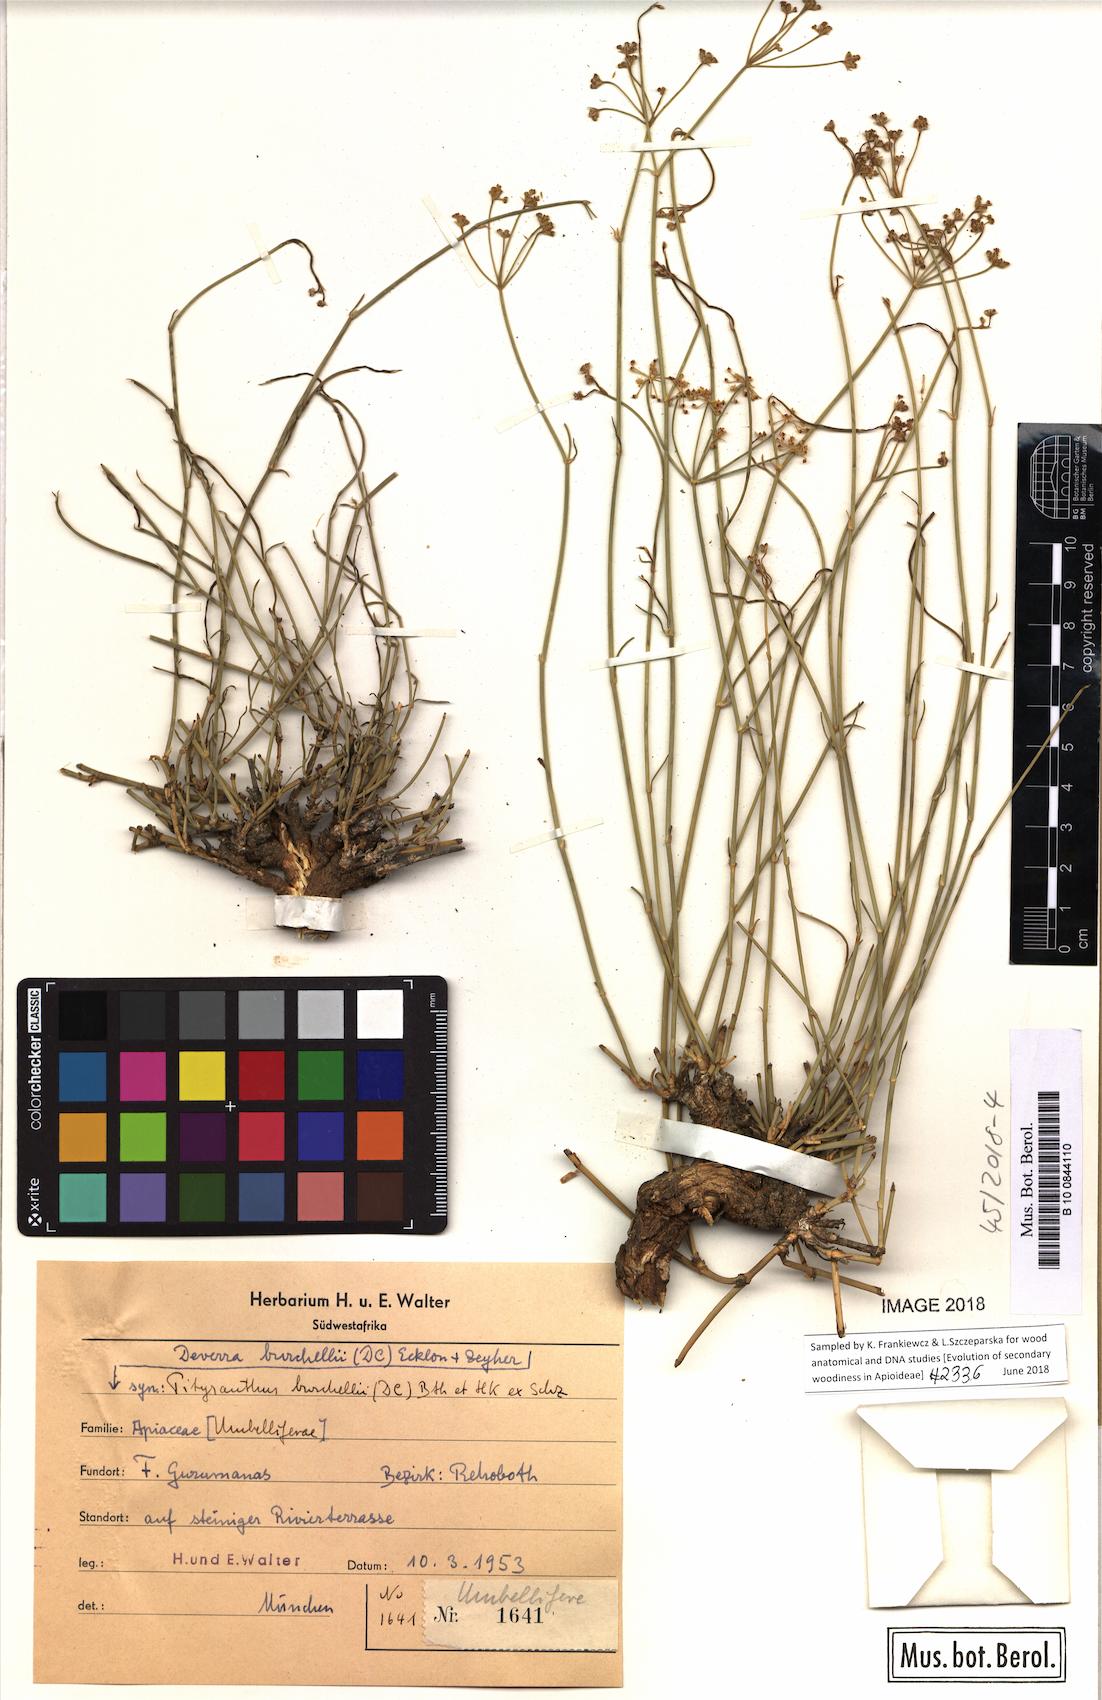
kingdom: Plantae
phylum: Tracheophyta
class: Magnoliopsida
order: Apiales
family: Apiaceae
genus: Deverra
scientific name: Deverra burchellii
